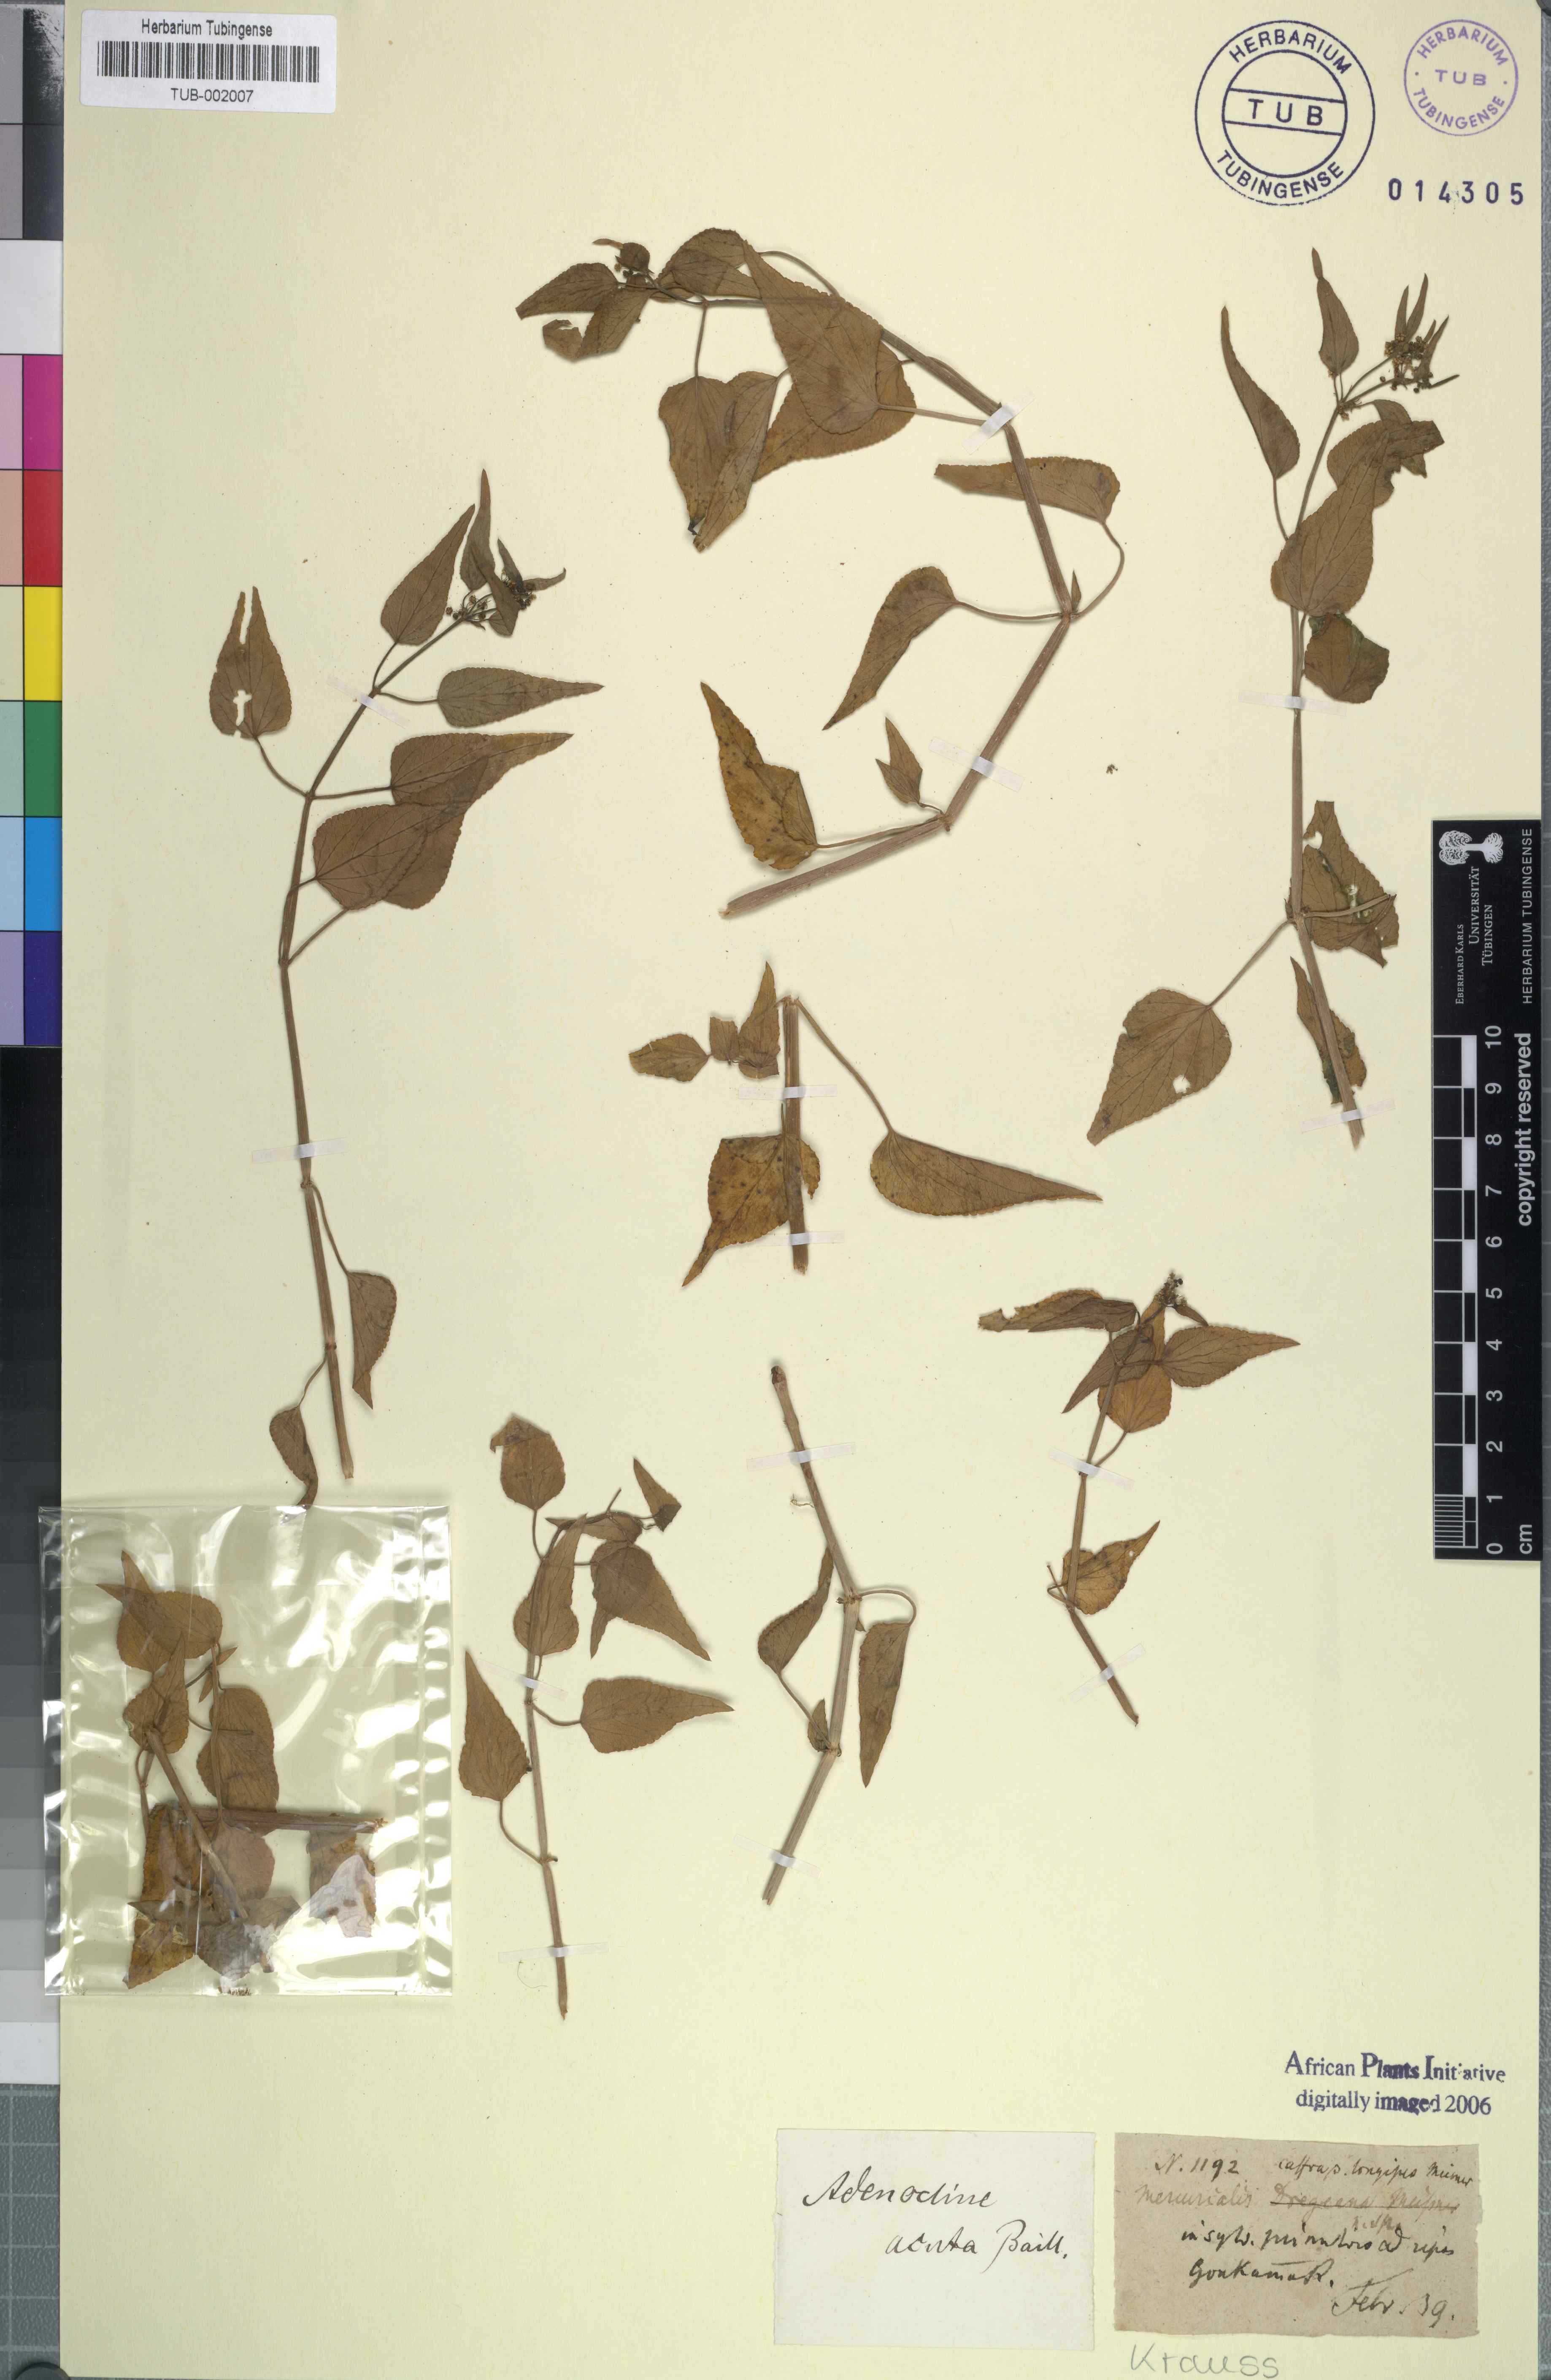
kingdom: Plantae
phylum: Tracheophyta
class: Magnoliopsida
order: Malpighiales
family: Euphorbiaceae
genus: Adenocline
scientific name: Adenocline acuta
